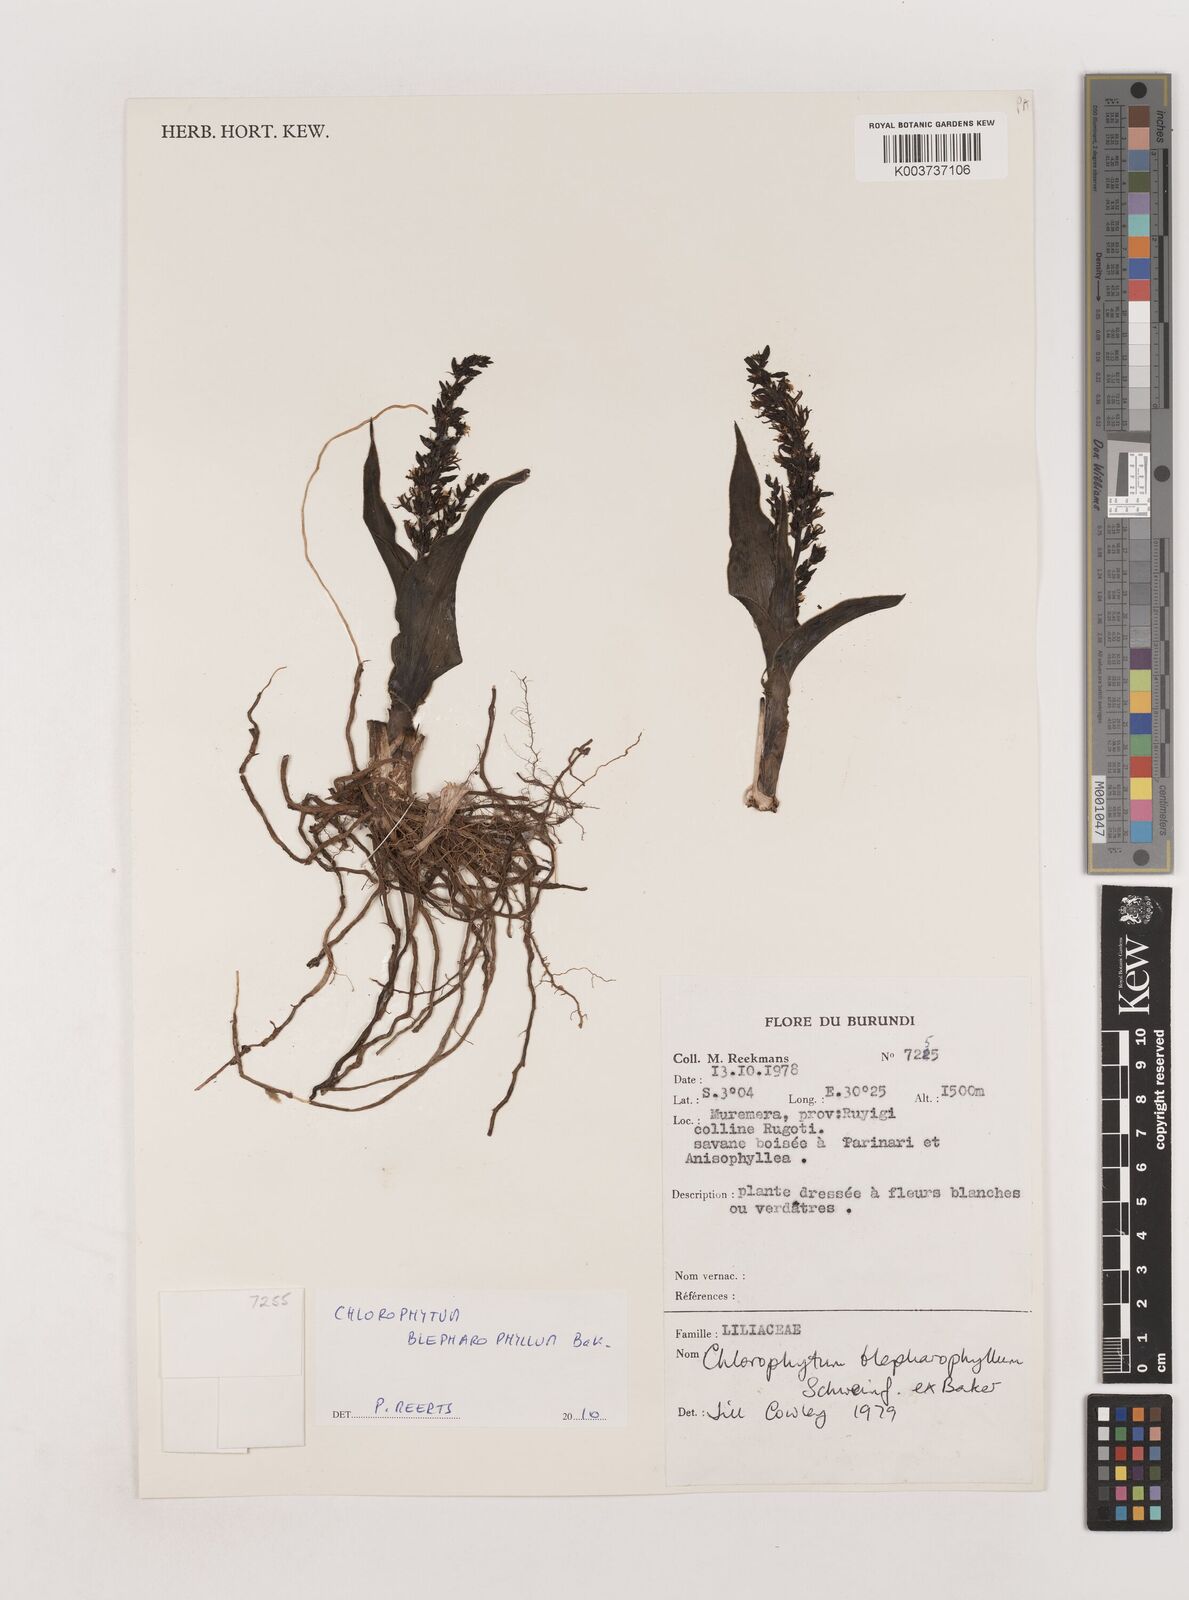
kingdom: Plantae
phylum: Tracheophyta
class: Liliopsida
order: Asparagales
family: Asparagaceae
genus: Chlorophytum
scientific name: Chlorophytum blepharophyllum
